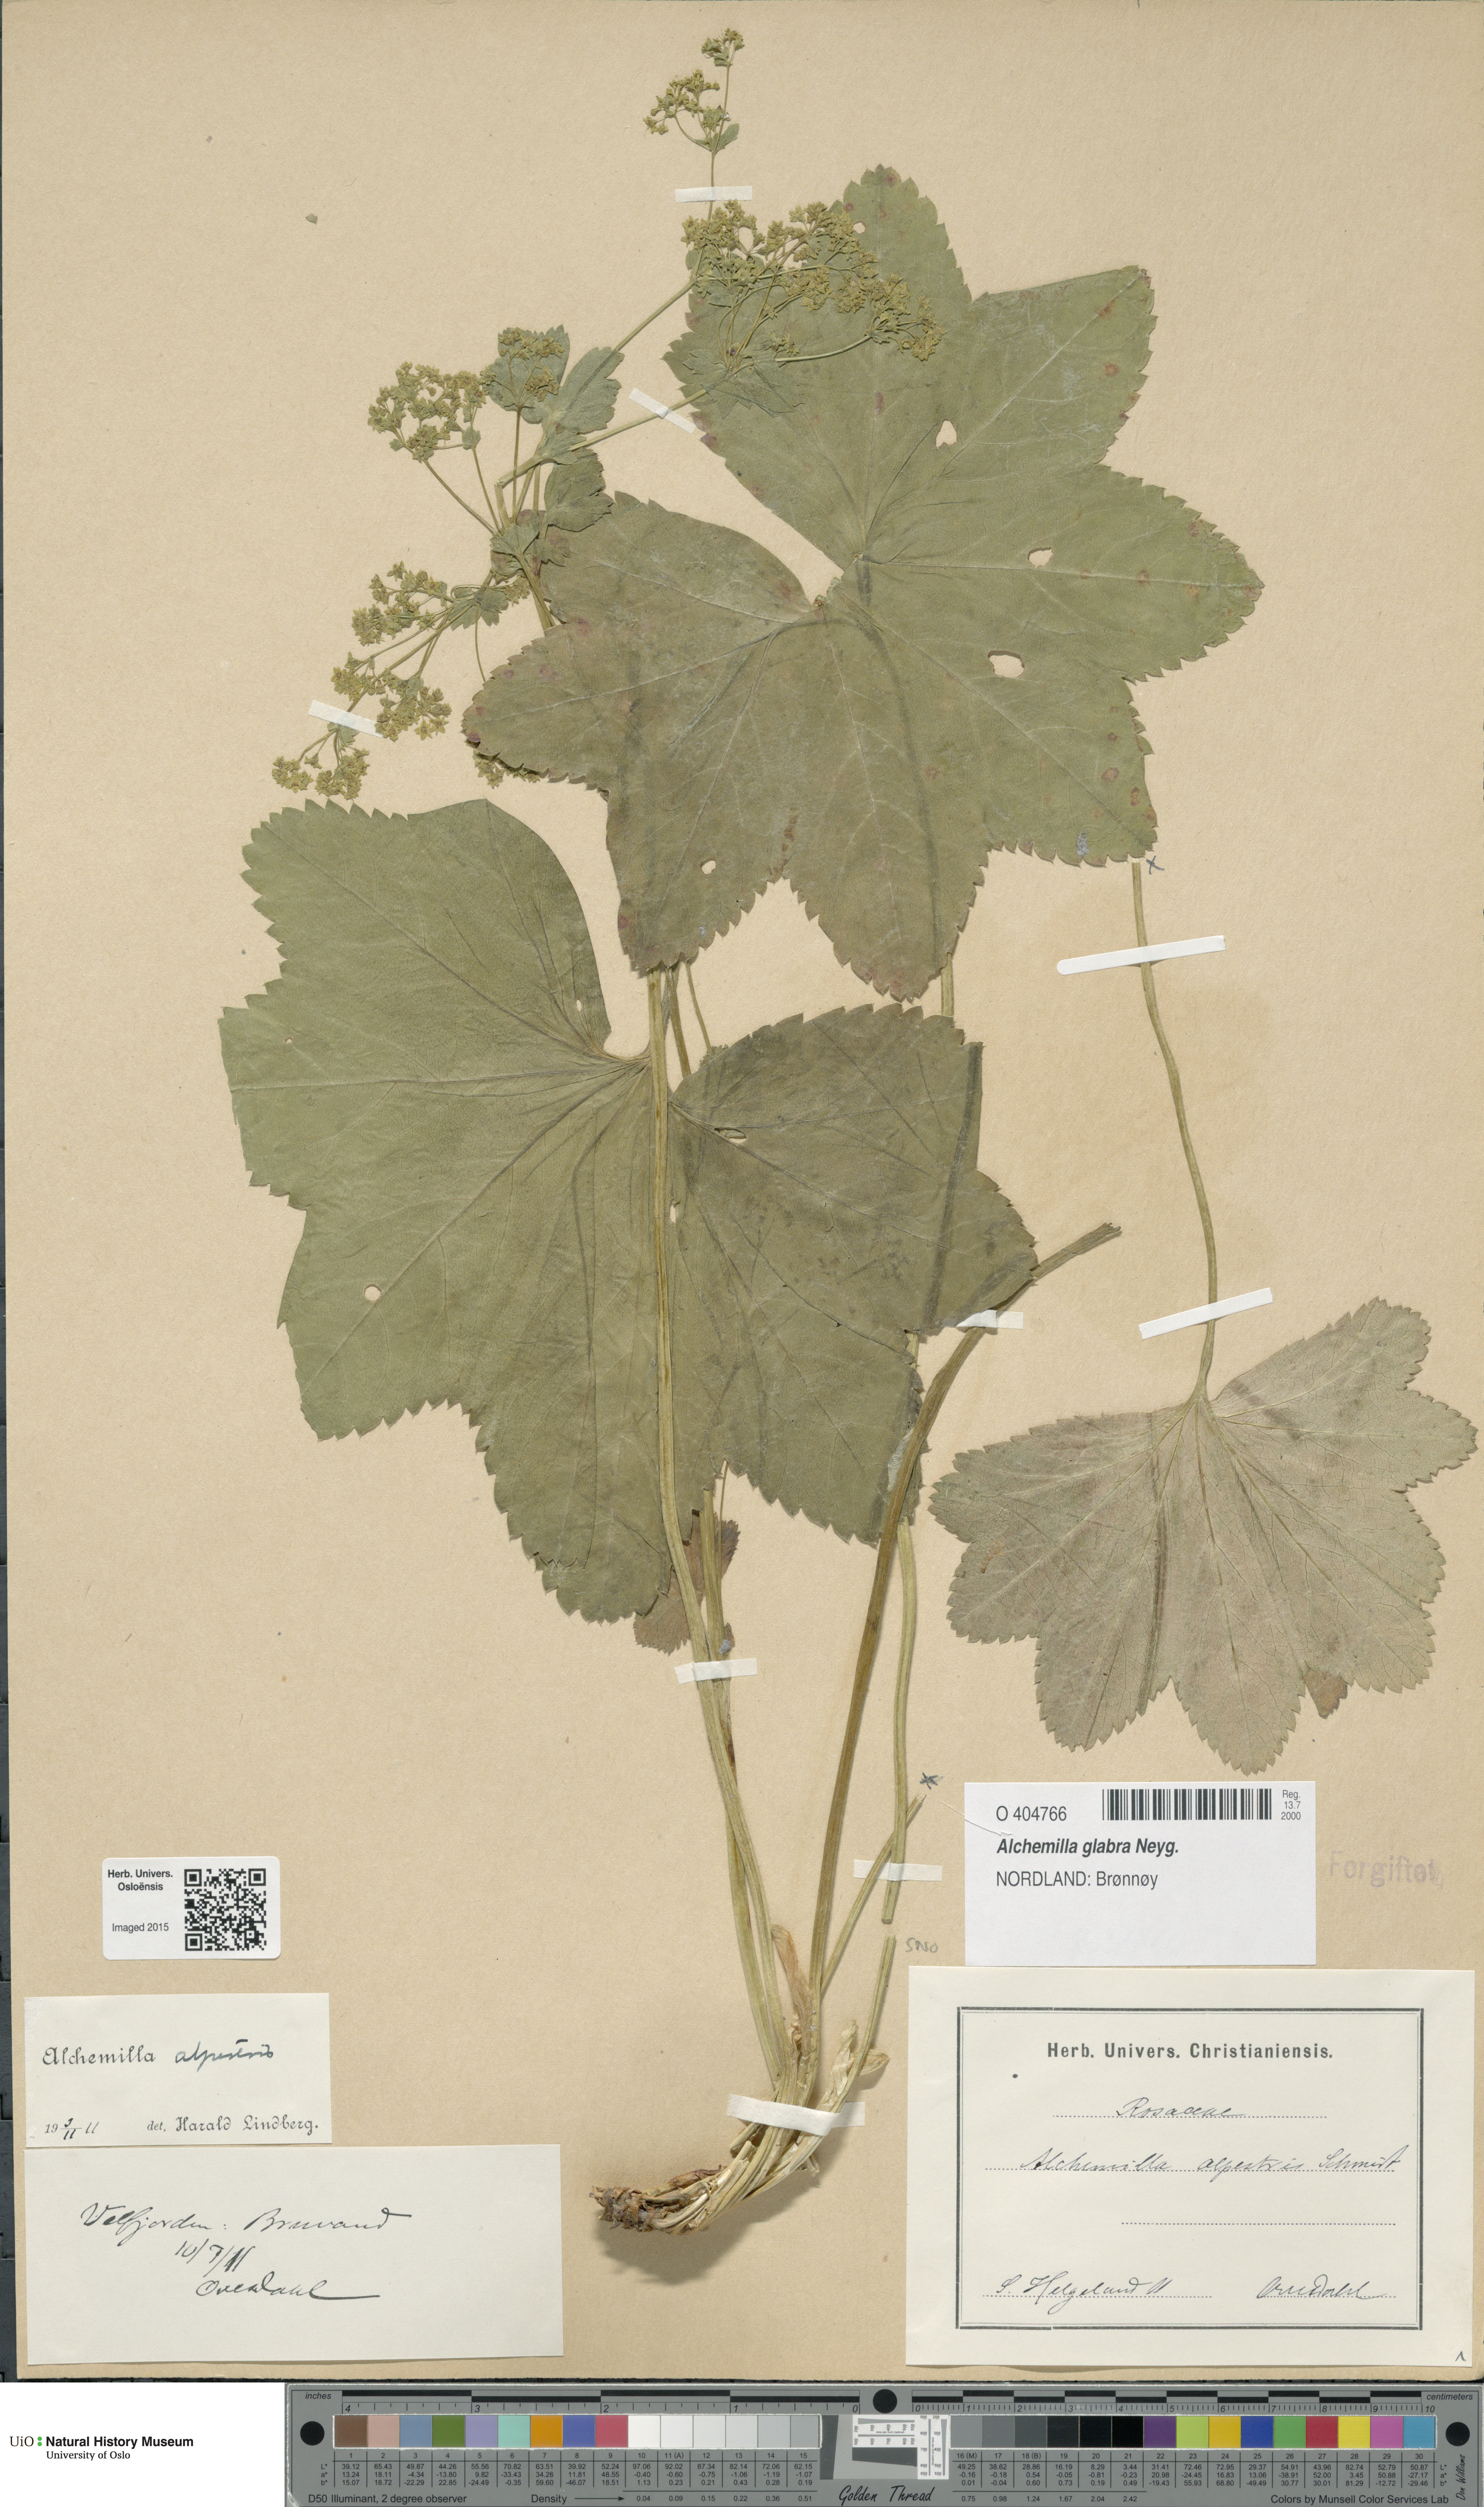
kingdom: Plantae
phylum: Tracheophyta
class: Magnoliopsida
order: Rosales
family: Rosaceae
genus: Alchemilla
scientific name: Alchemilla glabra
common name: Smooth lady's-mantle
